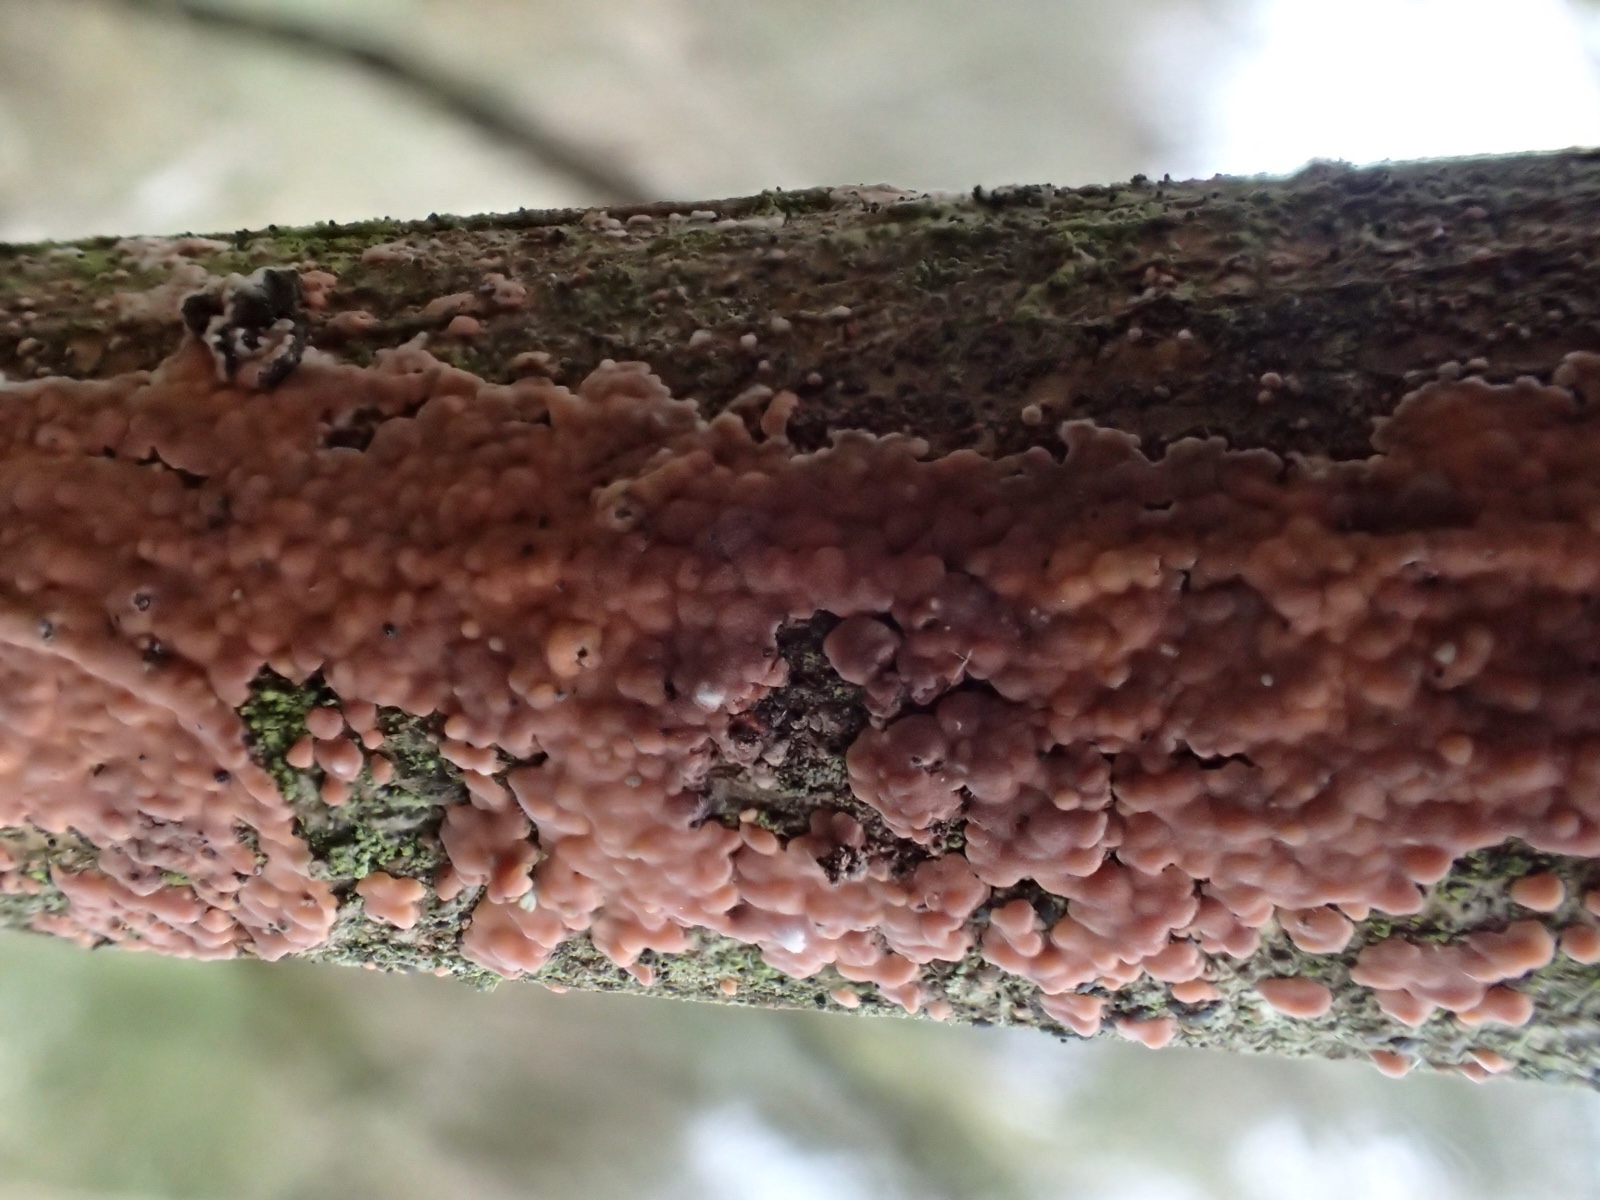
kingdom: Fungi
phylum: Basidiomycota
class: Agaricomycetes
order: Russulales
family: Peniophoraceae
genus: Peniophora
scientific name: Peniophora incarnata
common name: laksefarvet voksskind
